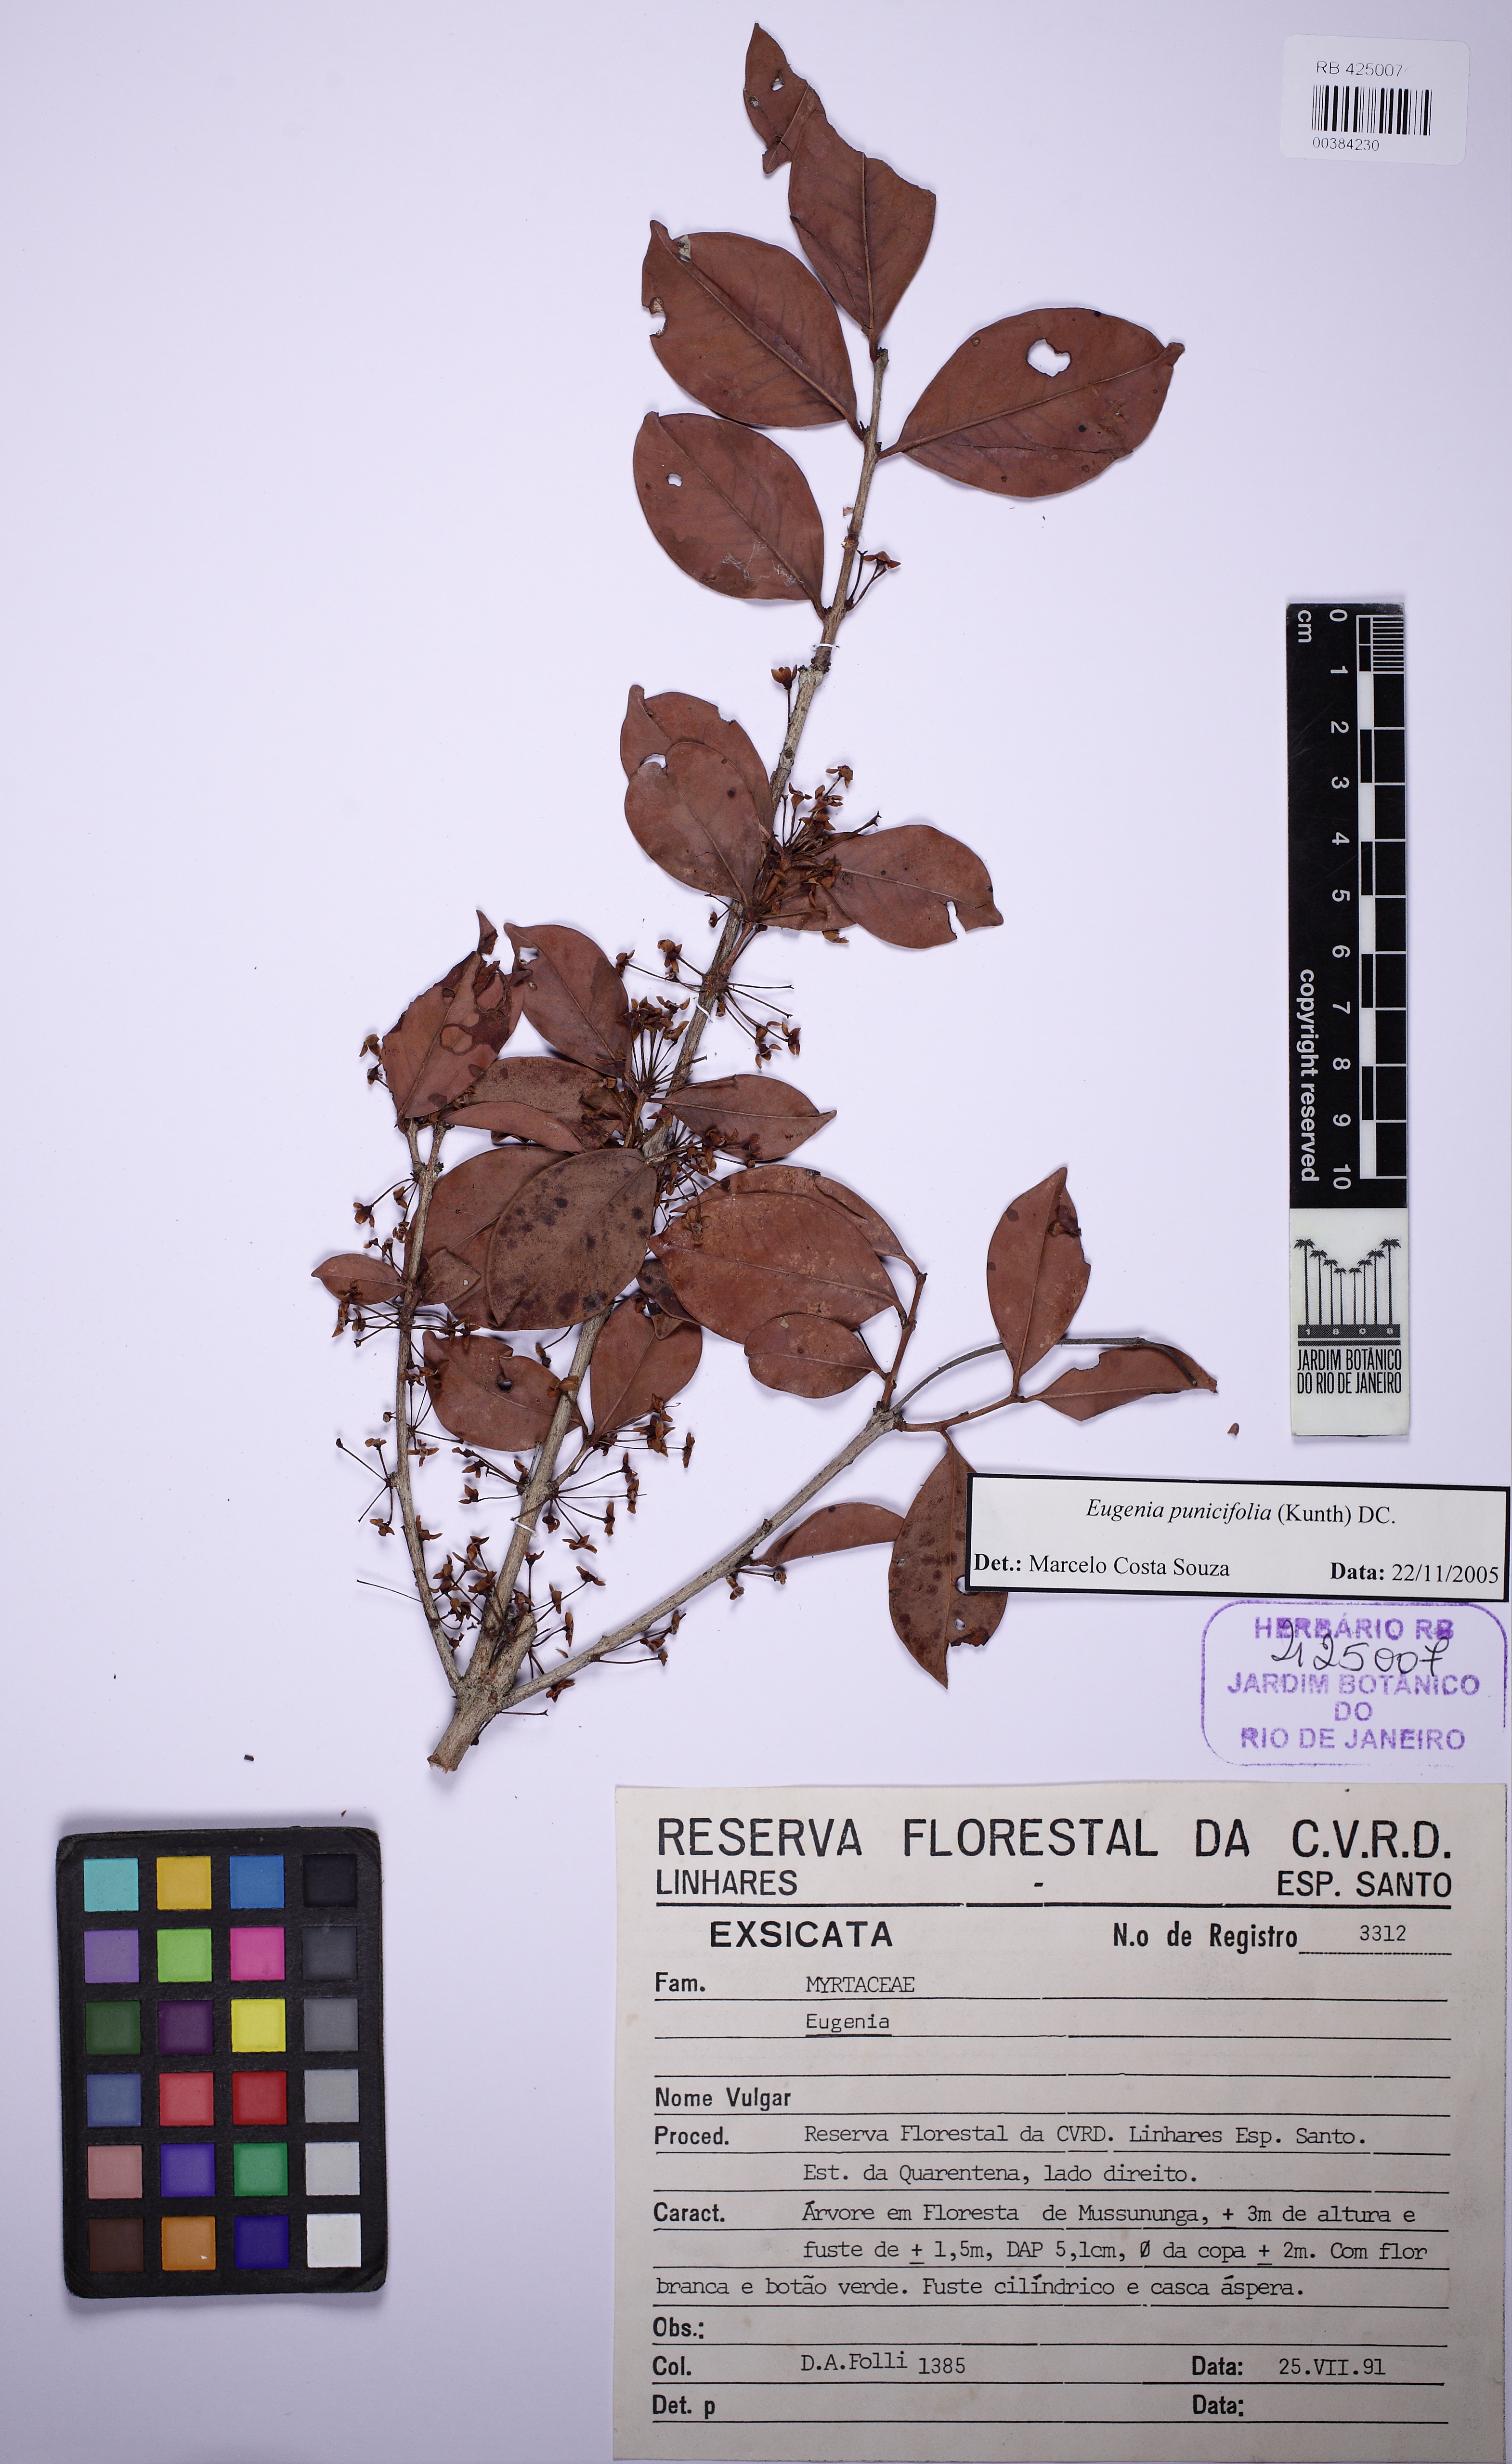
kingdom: Plantae
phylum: Tracheophyta
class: Magnoliopsida
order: Myrtales
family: Myrtaceae
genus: Eugenia
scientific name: Eugenia
